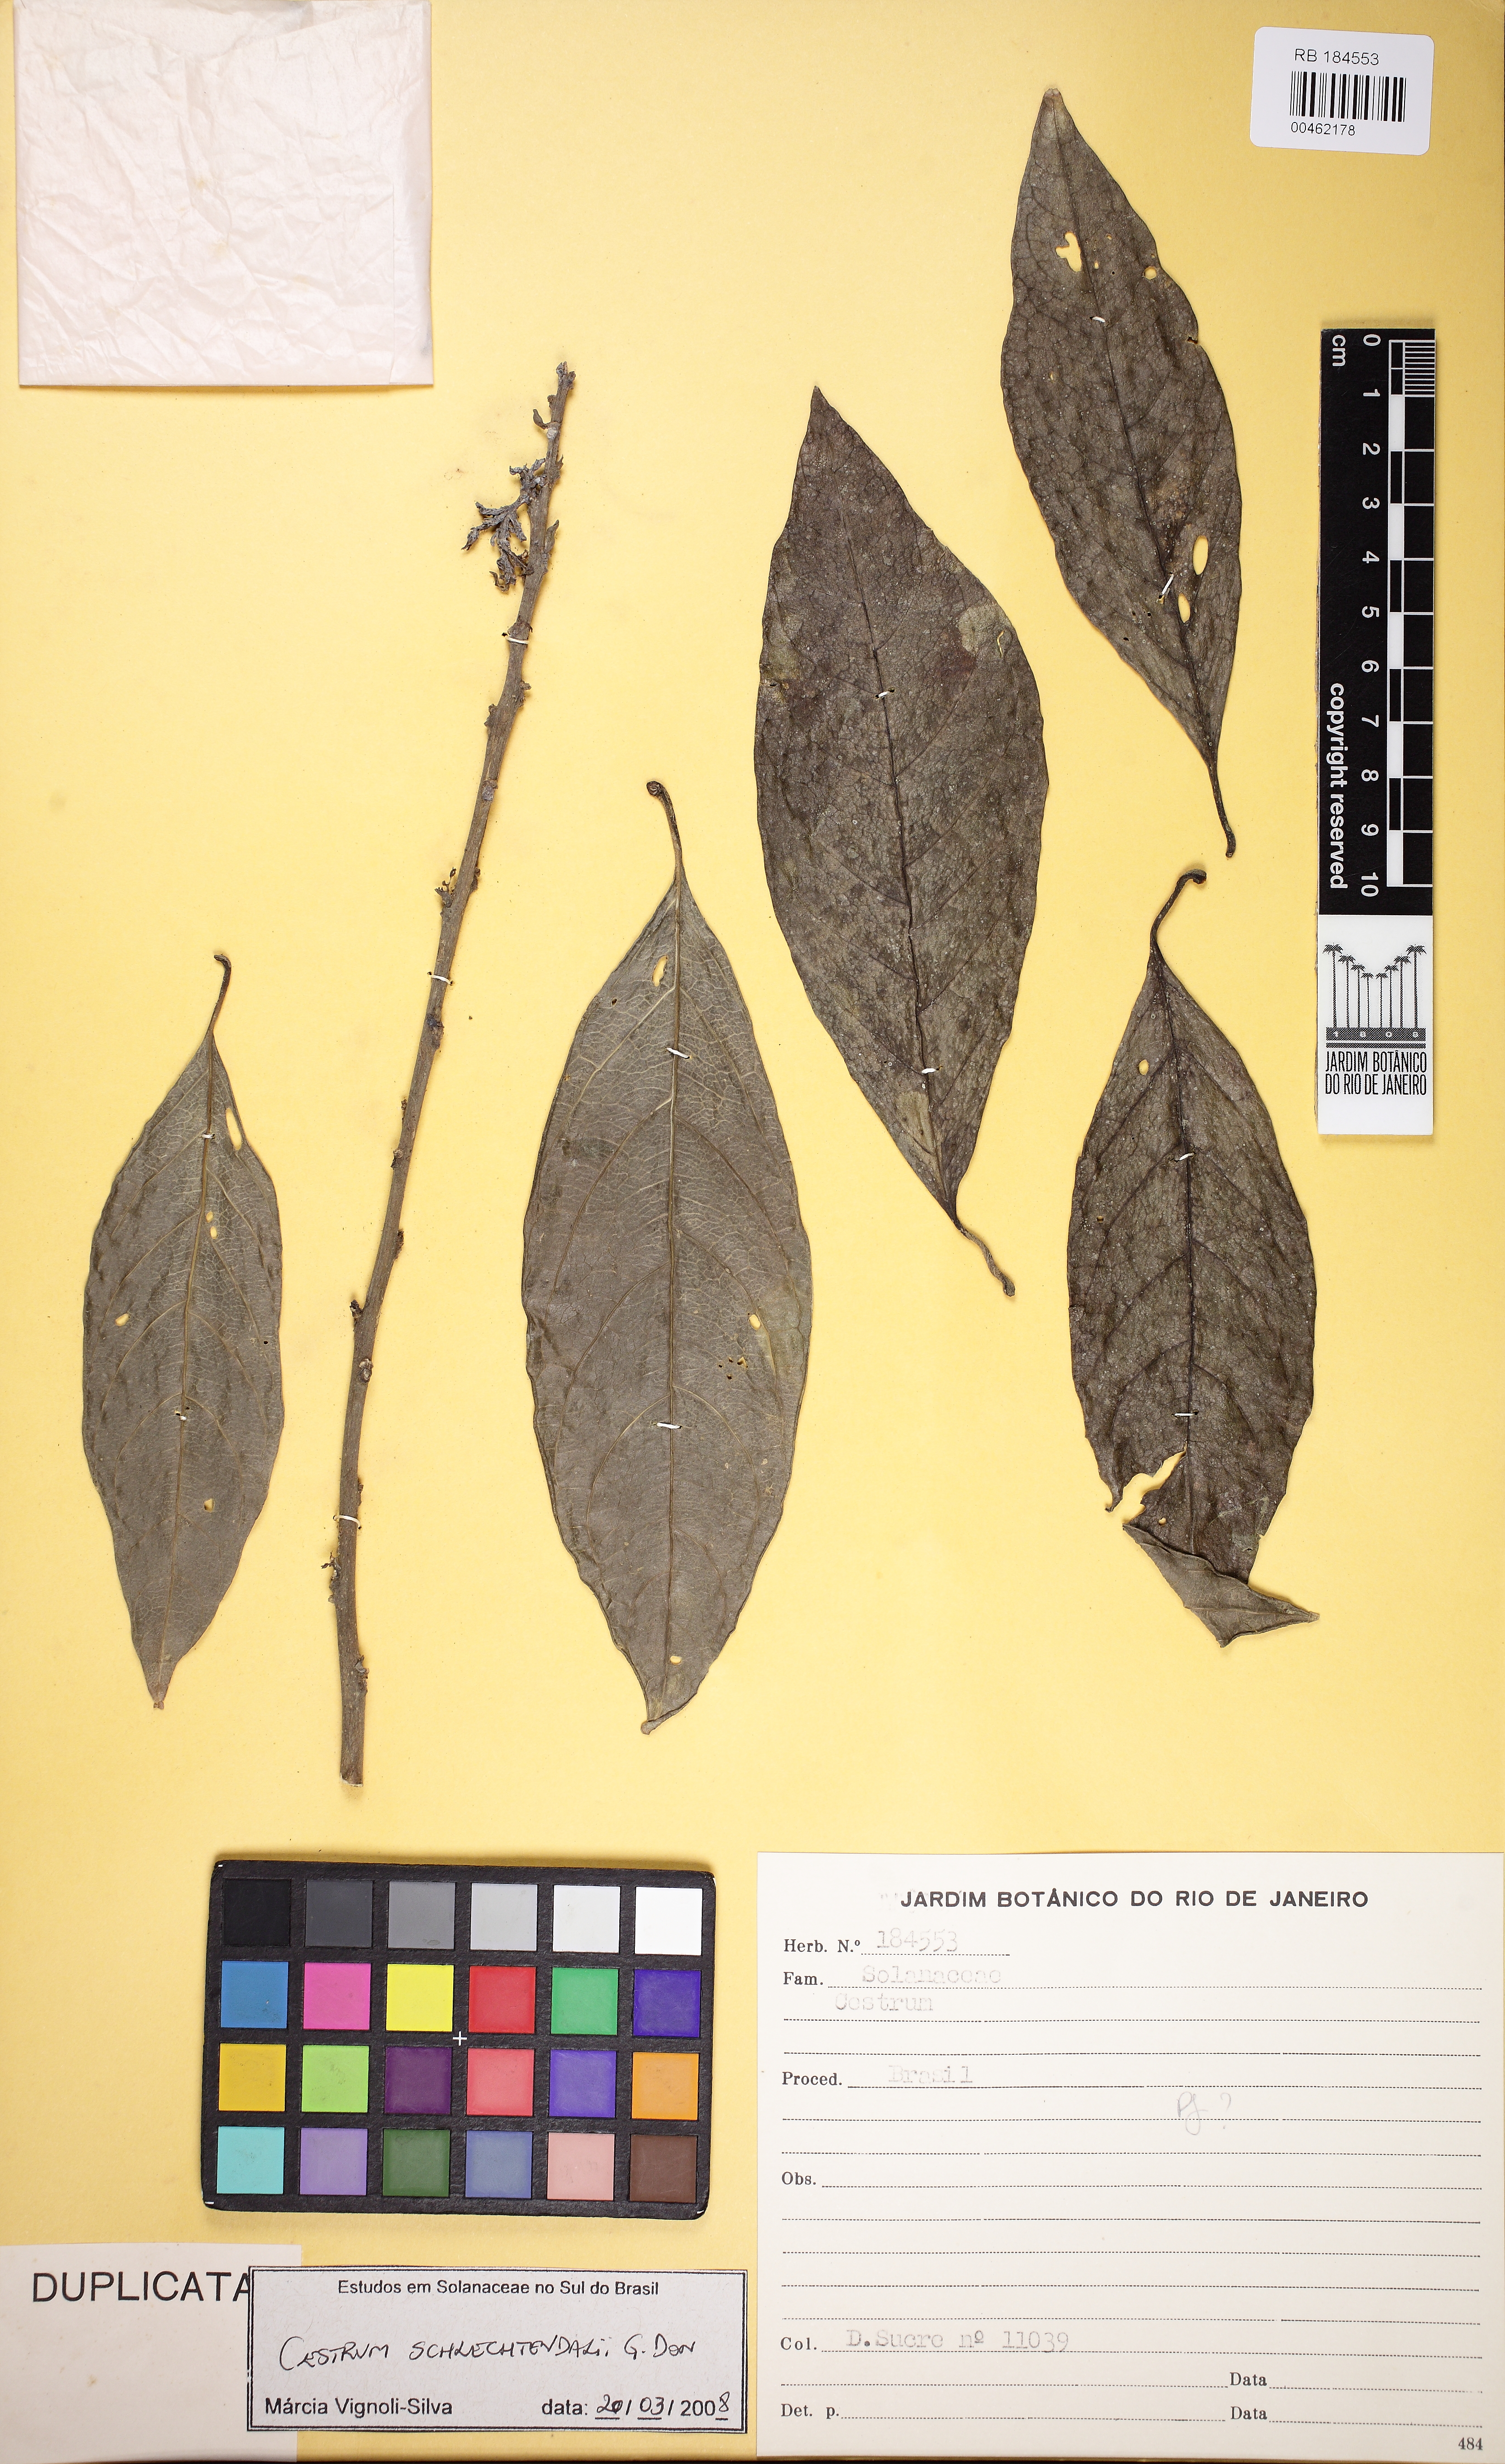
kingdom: Plantae
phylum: Tracheophyta
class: Magnoliopsida
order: Solanales
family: Solanaceae
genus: Cestrum
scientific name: Cestrum schlechtendalii
